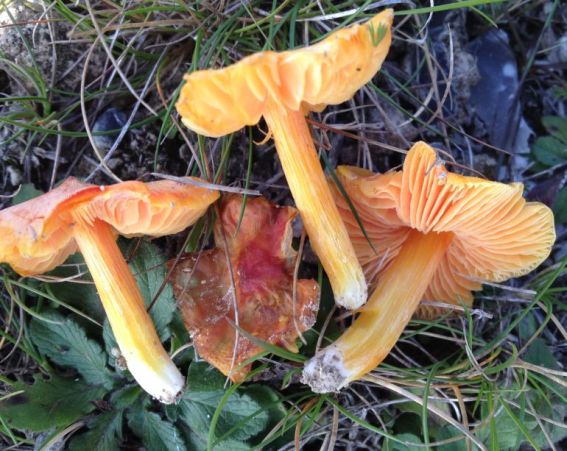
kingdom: Fungi
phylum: Basidiomycota
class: Agaricomycetes
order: Agaricales
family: Hygrophoraceae
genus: Hygrocybe
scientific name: Hygrocybe acutoconica
